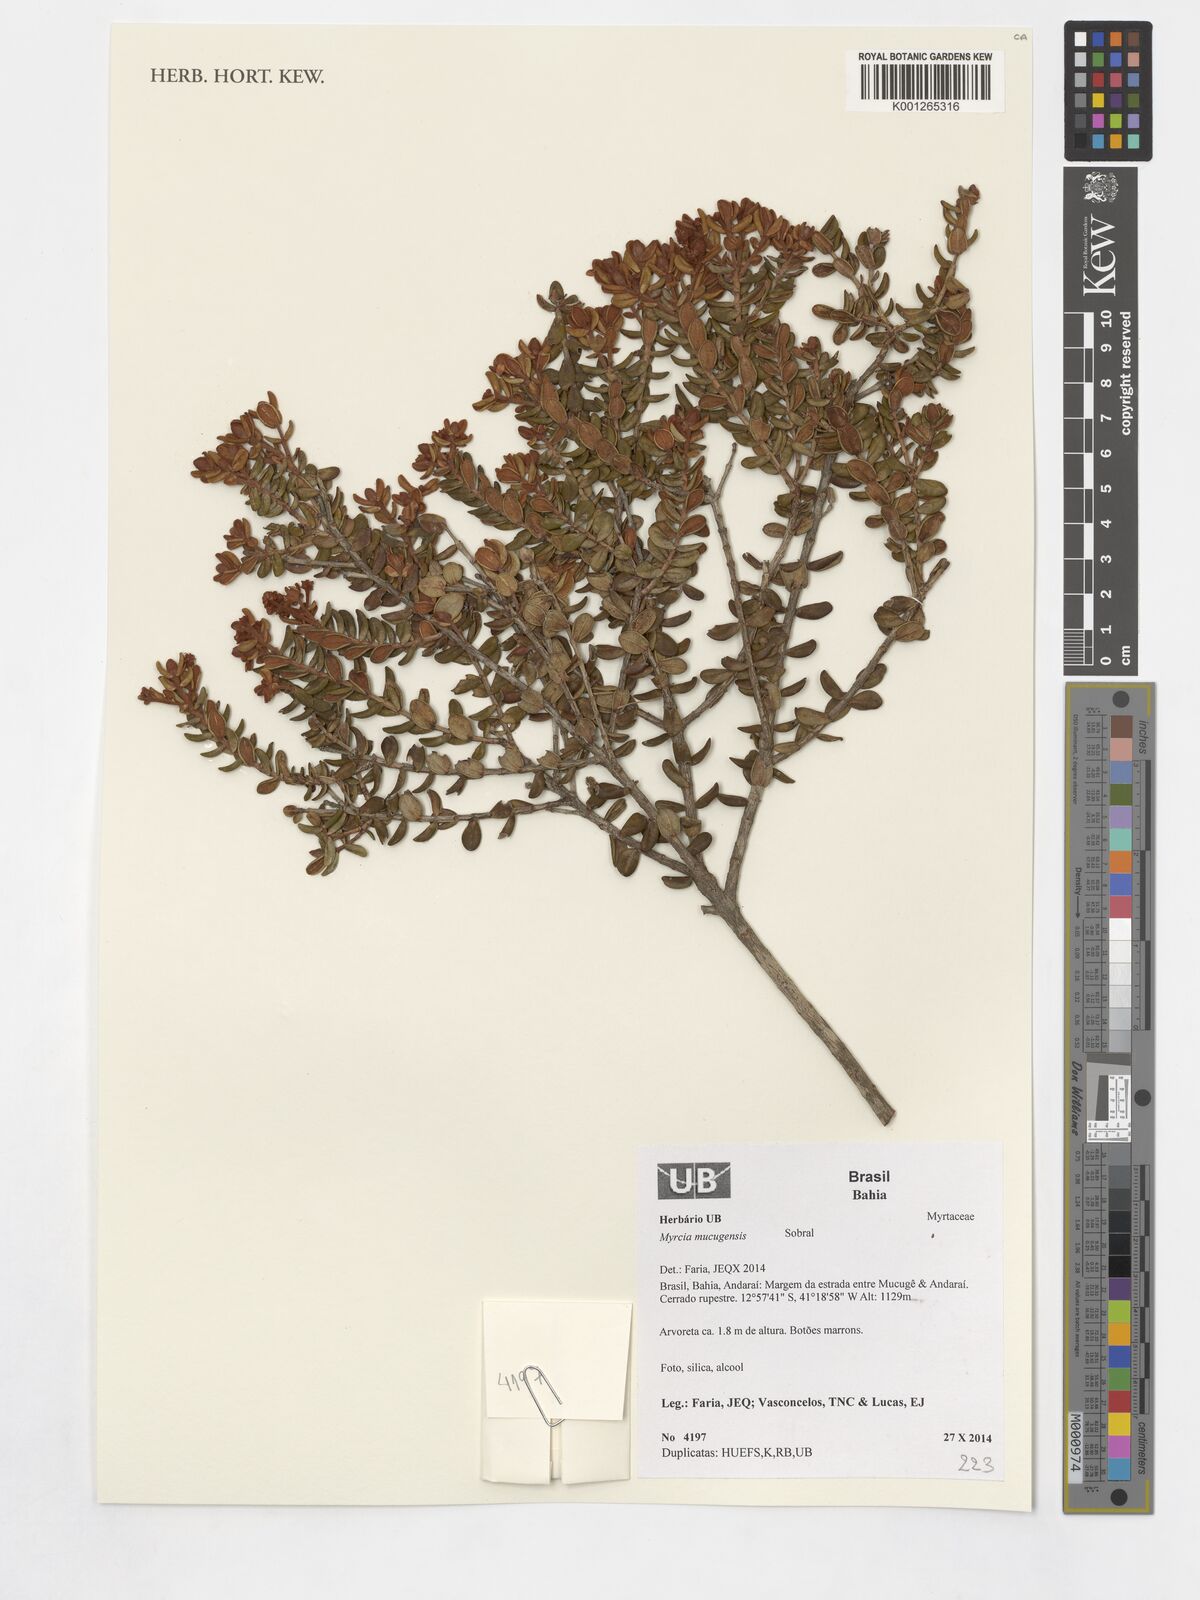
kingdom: Plantae
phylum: Tracheophyta
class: Magnoliopsida
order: Myrtales
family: Myrtaceae
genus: Myrcia
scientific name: Myrcia mucugensis
